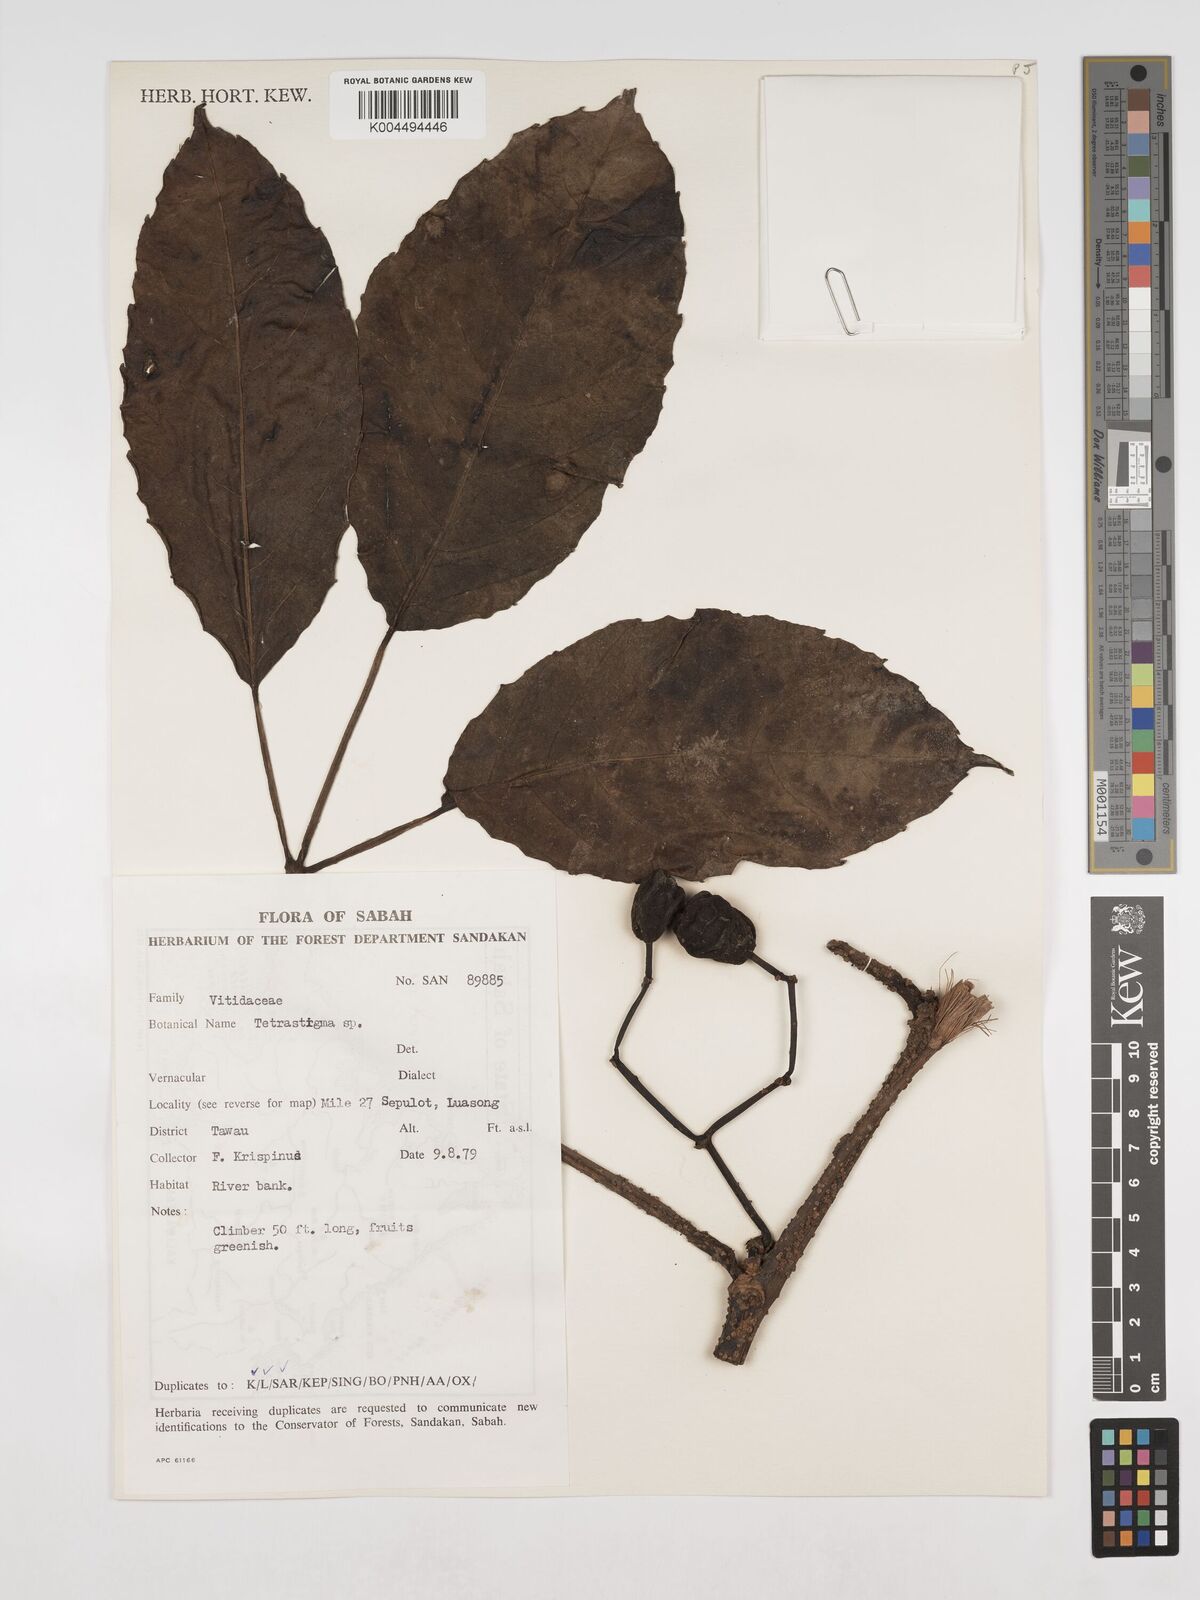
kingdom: Plantae
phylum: Tracheophyta
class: Magnoliopsida
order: Vitales
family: Vitaceae
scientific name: Vitaceae
